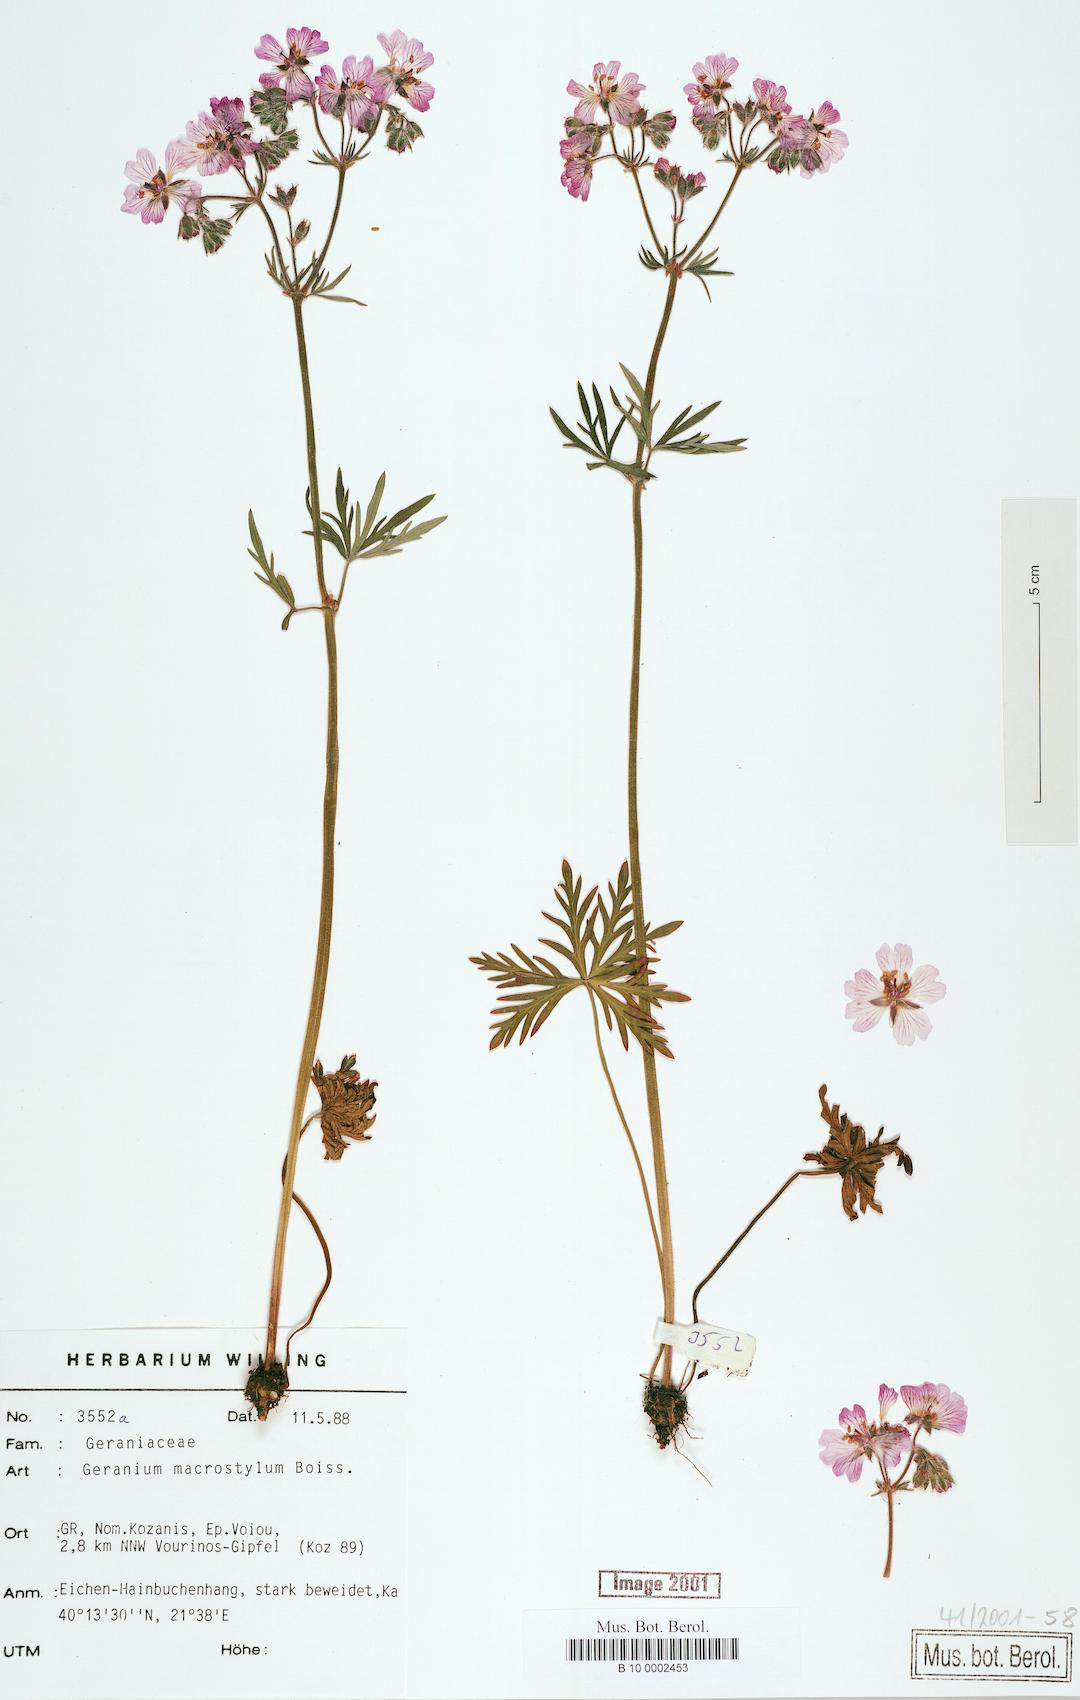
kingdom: Plantae
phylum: Tracheophyta
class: Magnoliopsida
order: Geraniales
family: Geraniaceae
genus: Geranium
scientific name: Geranium macrostylum
